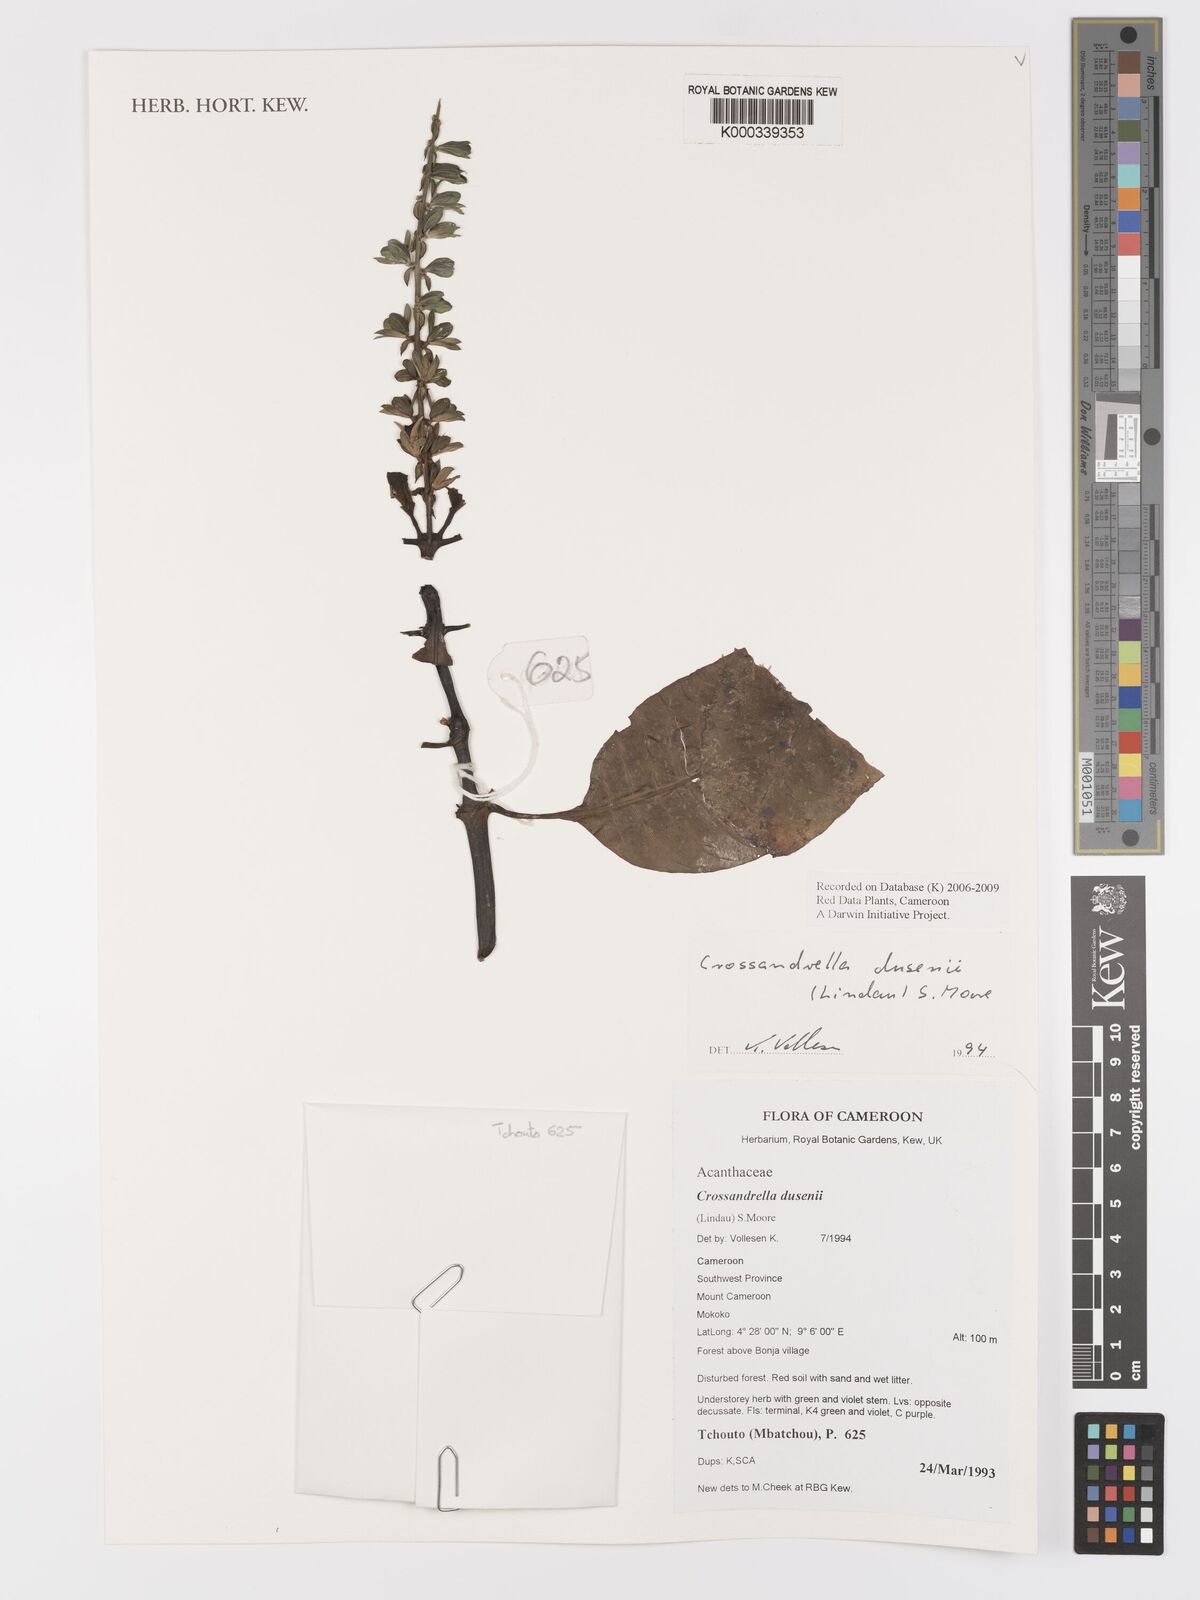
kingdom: Plantae
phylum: Tracheophyta
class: Magnoliopsida
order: Lamiales
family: Acanthaceae
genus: Crossandrella
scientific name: Crossandrella dusenii
